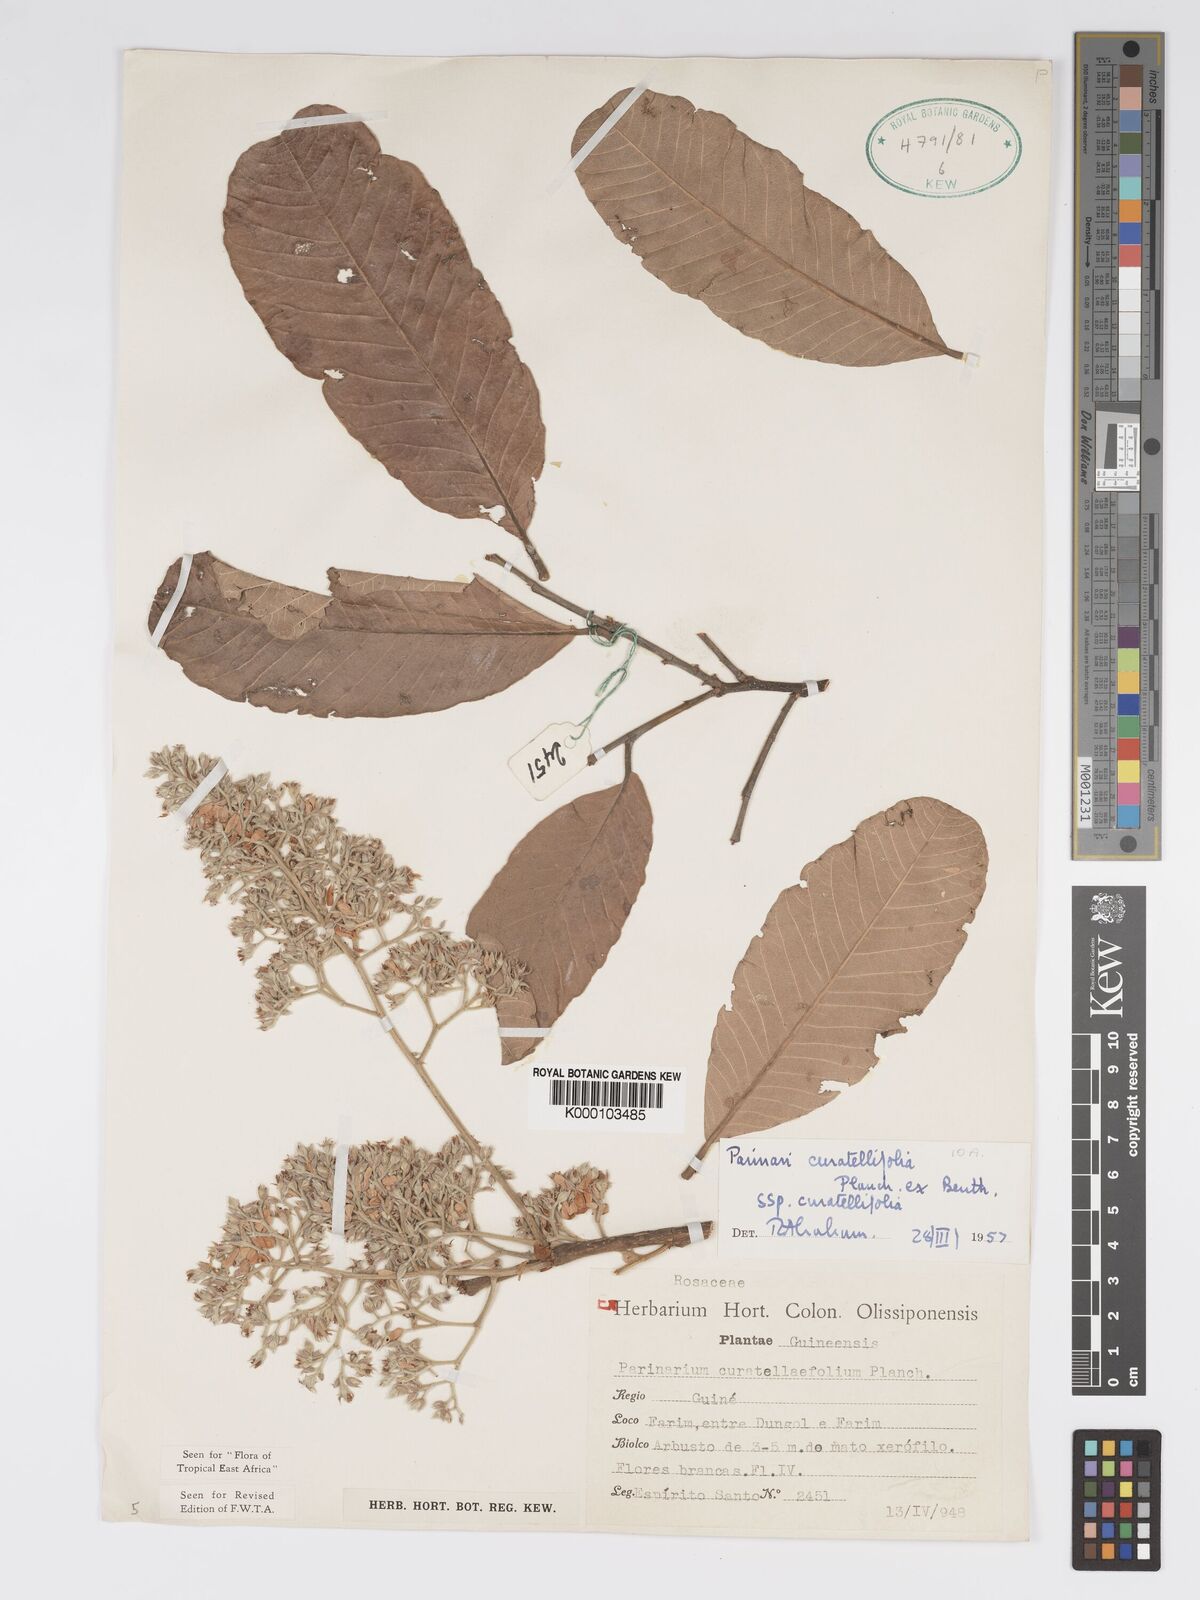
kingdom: Plantae
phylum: Tracheophyta
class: Magnoliopsida
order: Malpighiales
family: Chrysobalanaceae
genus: Parinari
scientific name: Parinari curatellifolia
